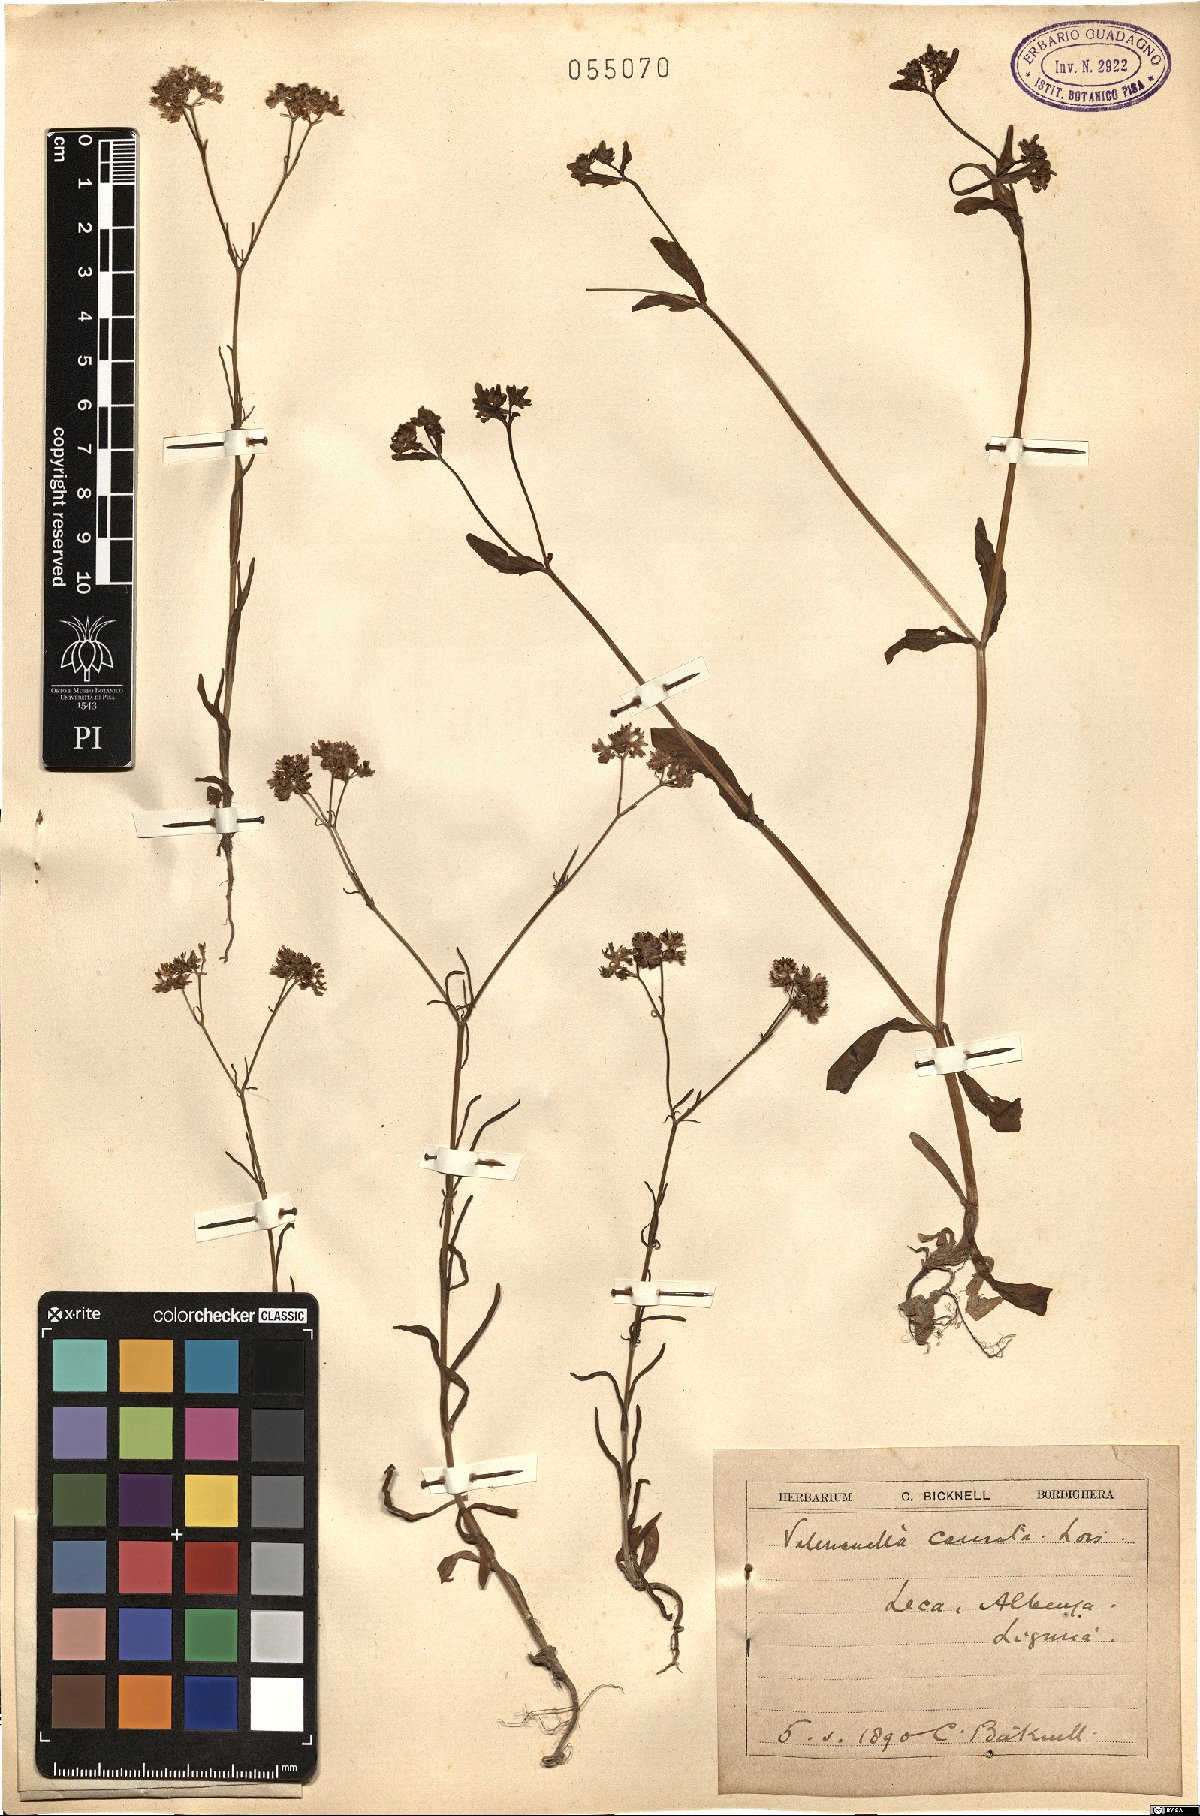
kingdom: Plantae
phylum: Tracheophyta
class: Magnoliopsida
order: Dipsacales
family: Caprifoliaceae
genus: Valerianella
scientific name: Valerianella carinata
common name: Keeled-fruited cornsalad
